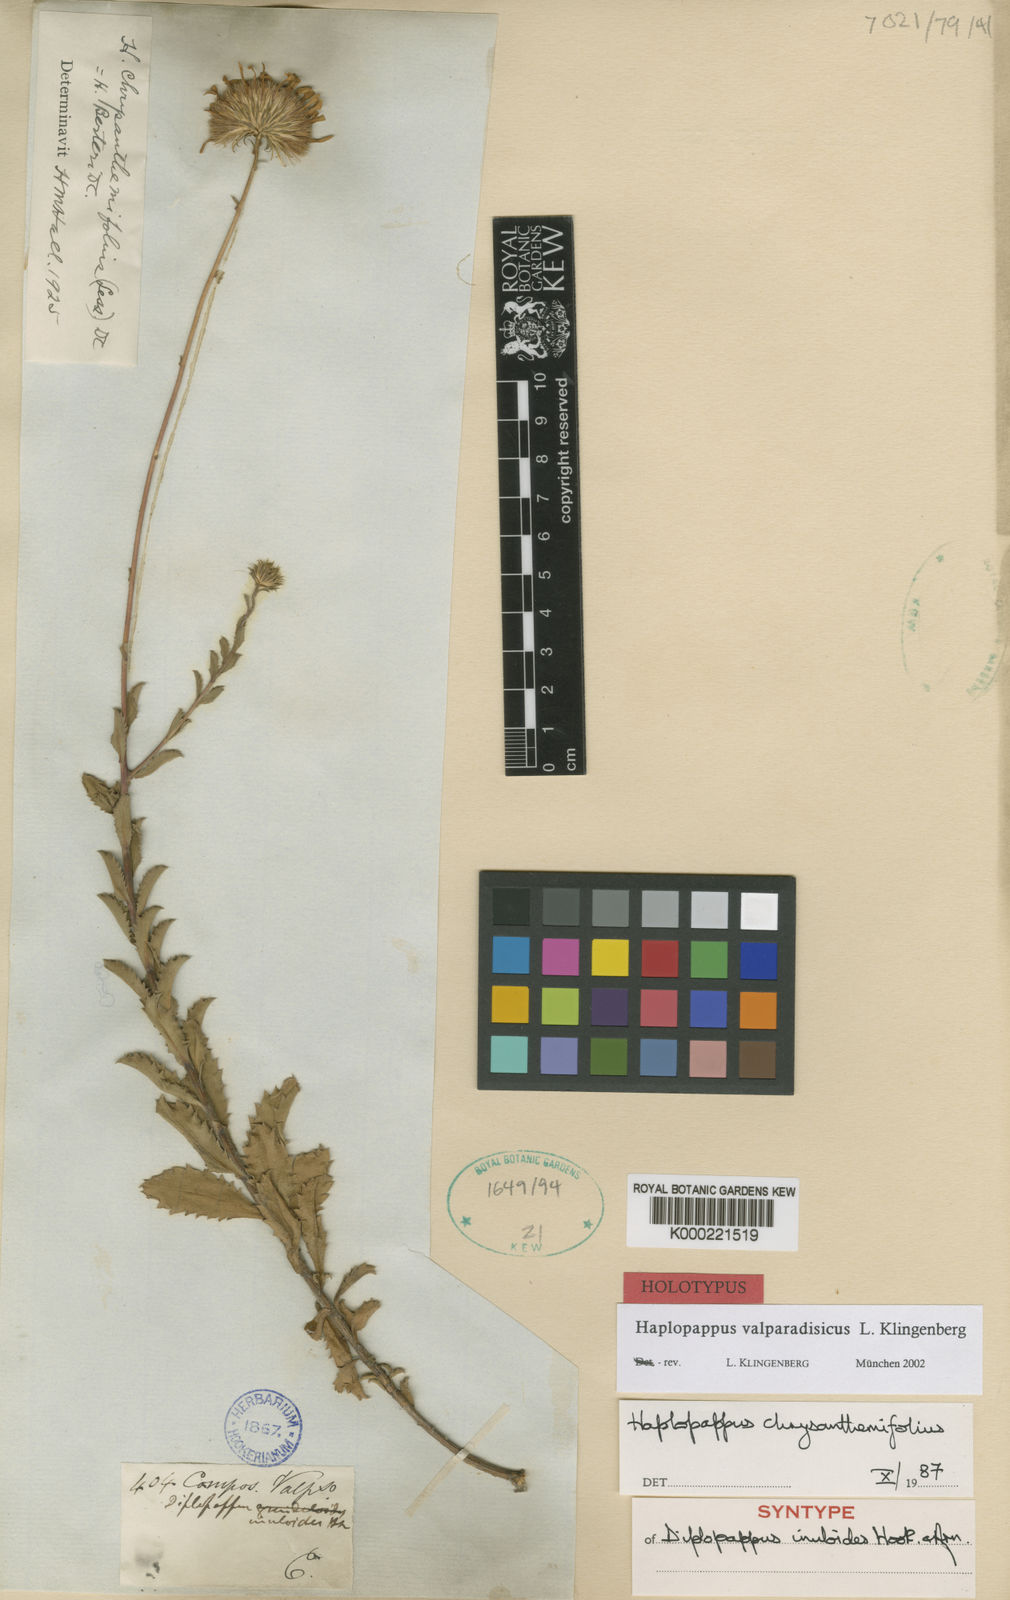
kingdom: Plantae
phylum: Tracheophyta
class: Magnoliopsida
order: Asterales
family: Asteraceae
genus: Haplopappus
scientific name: Haplopappus
